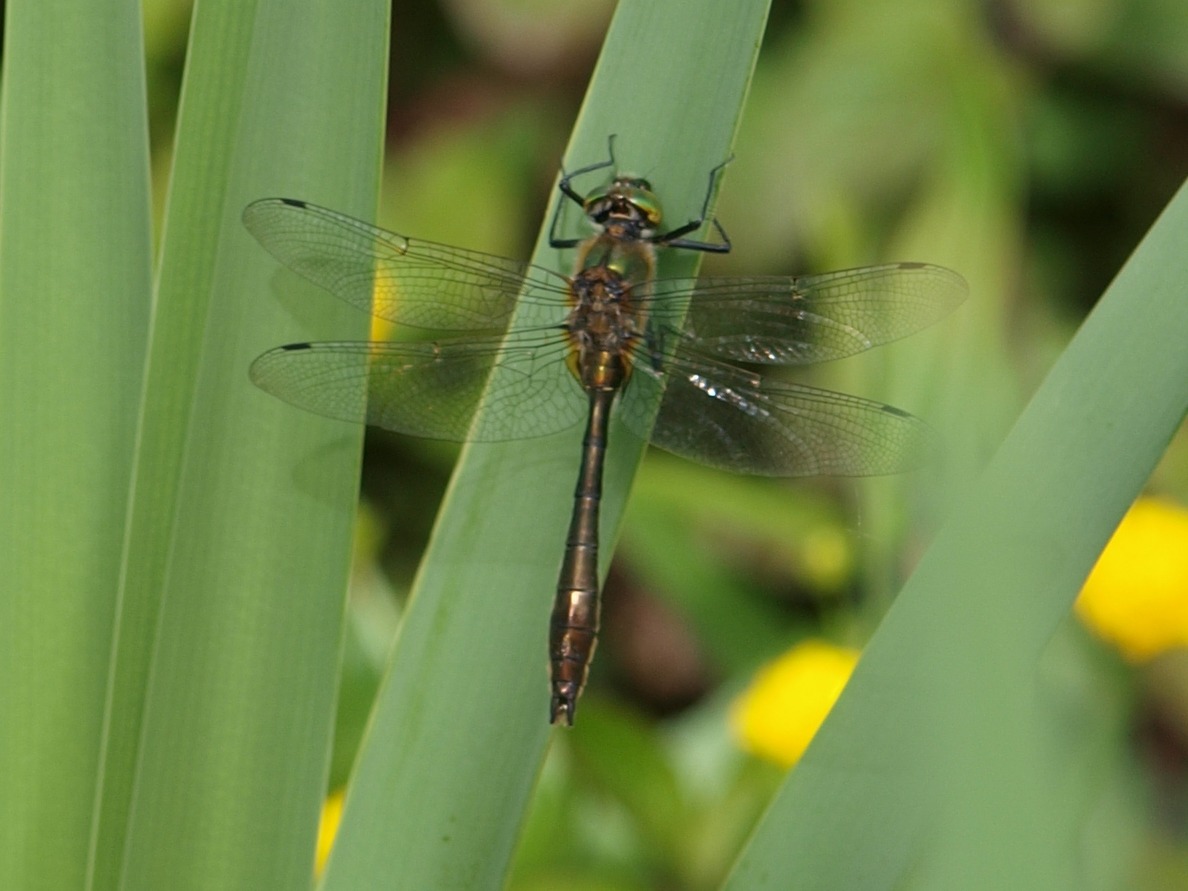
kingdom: Animalia
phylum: Arthropoda
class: Insecta
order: Odonata
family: Corduliidae
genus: Cordulia
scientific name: Cordulia aenea
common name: Grøn smaragdlibel
